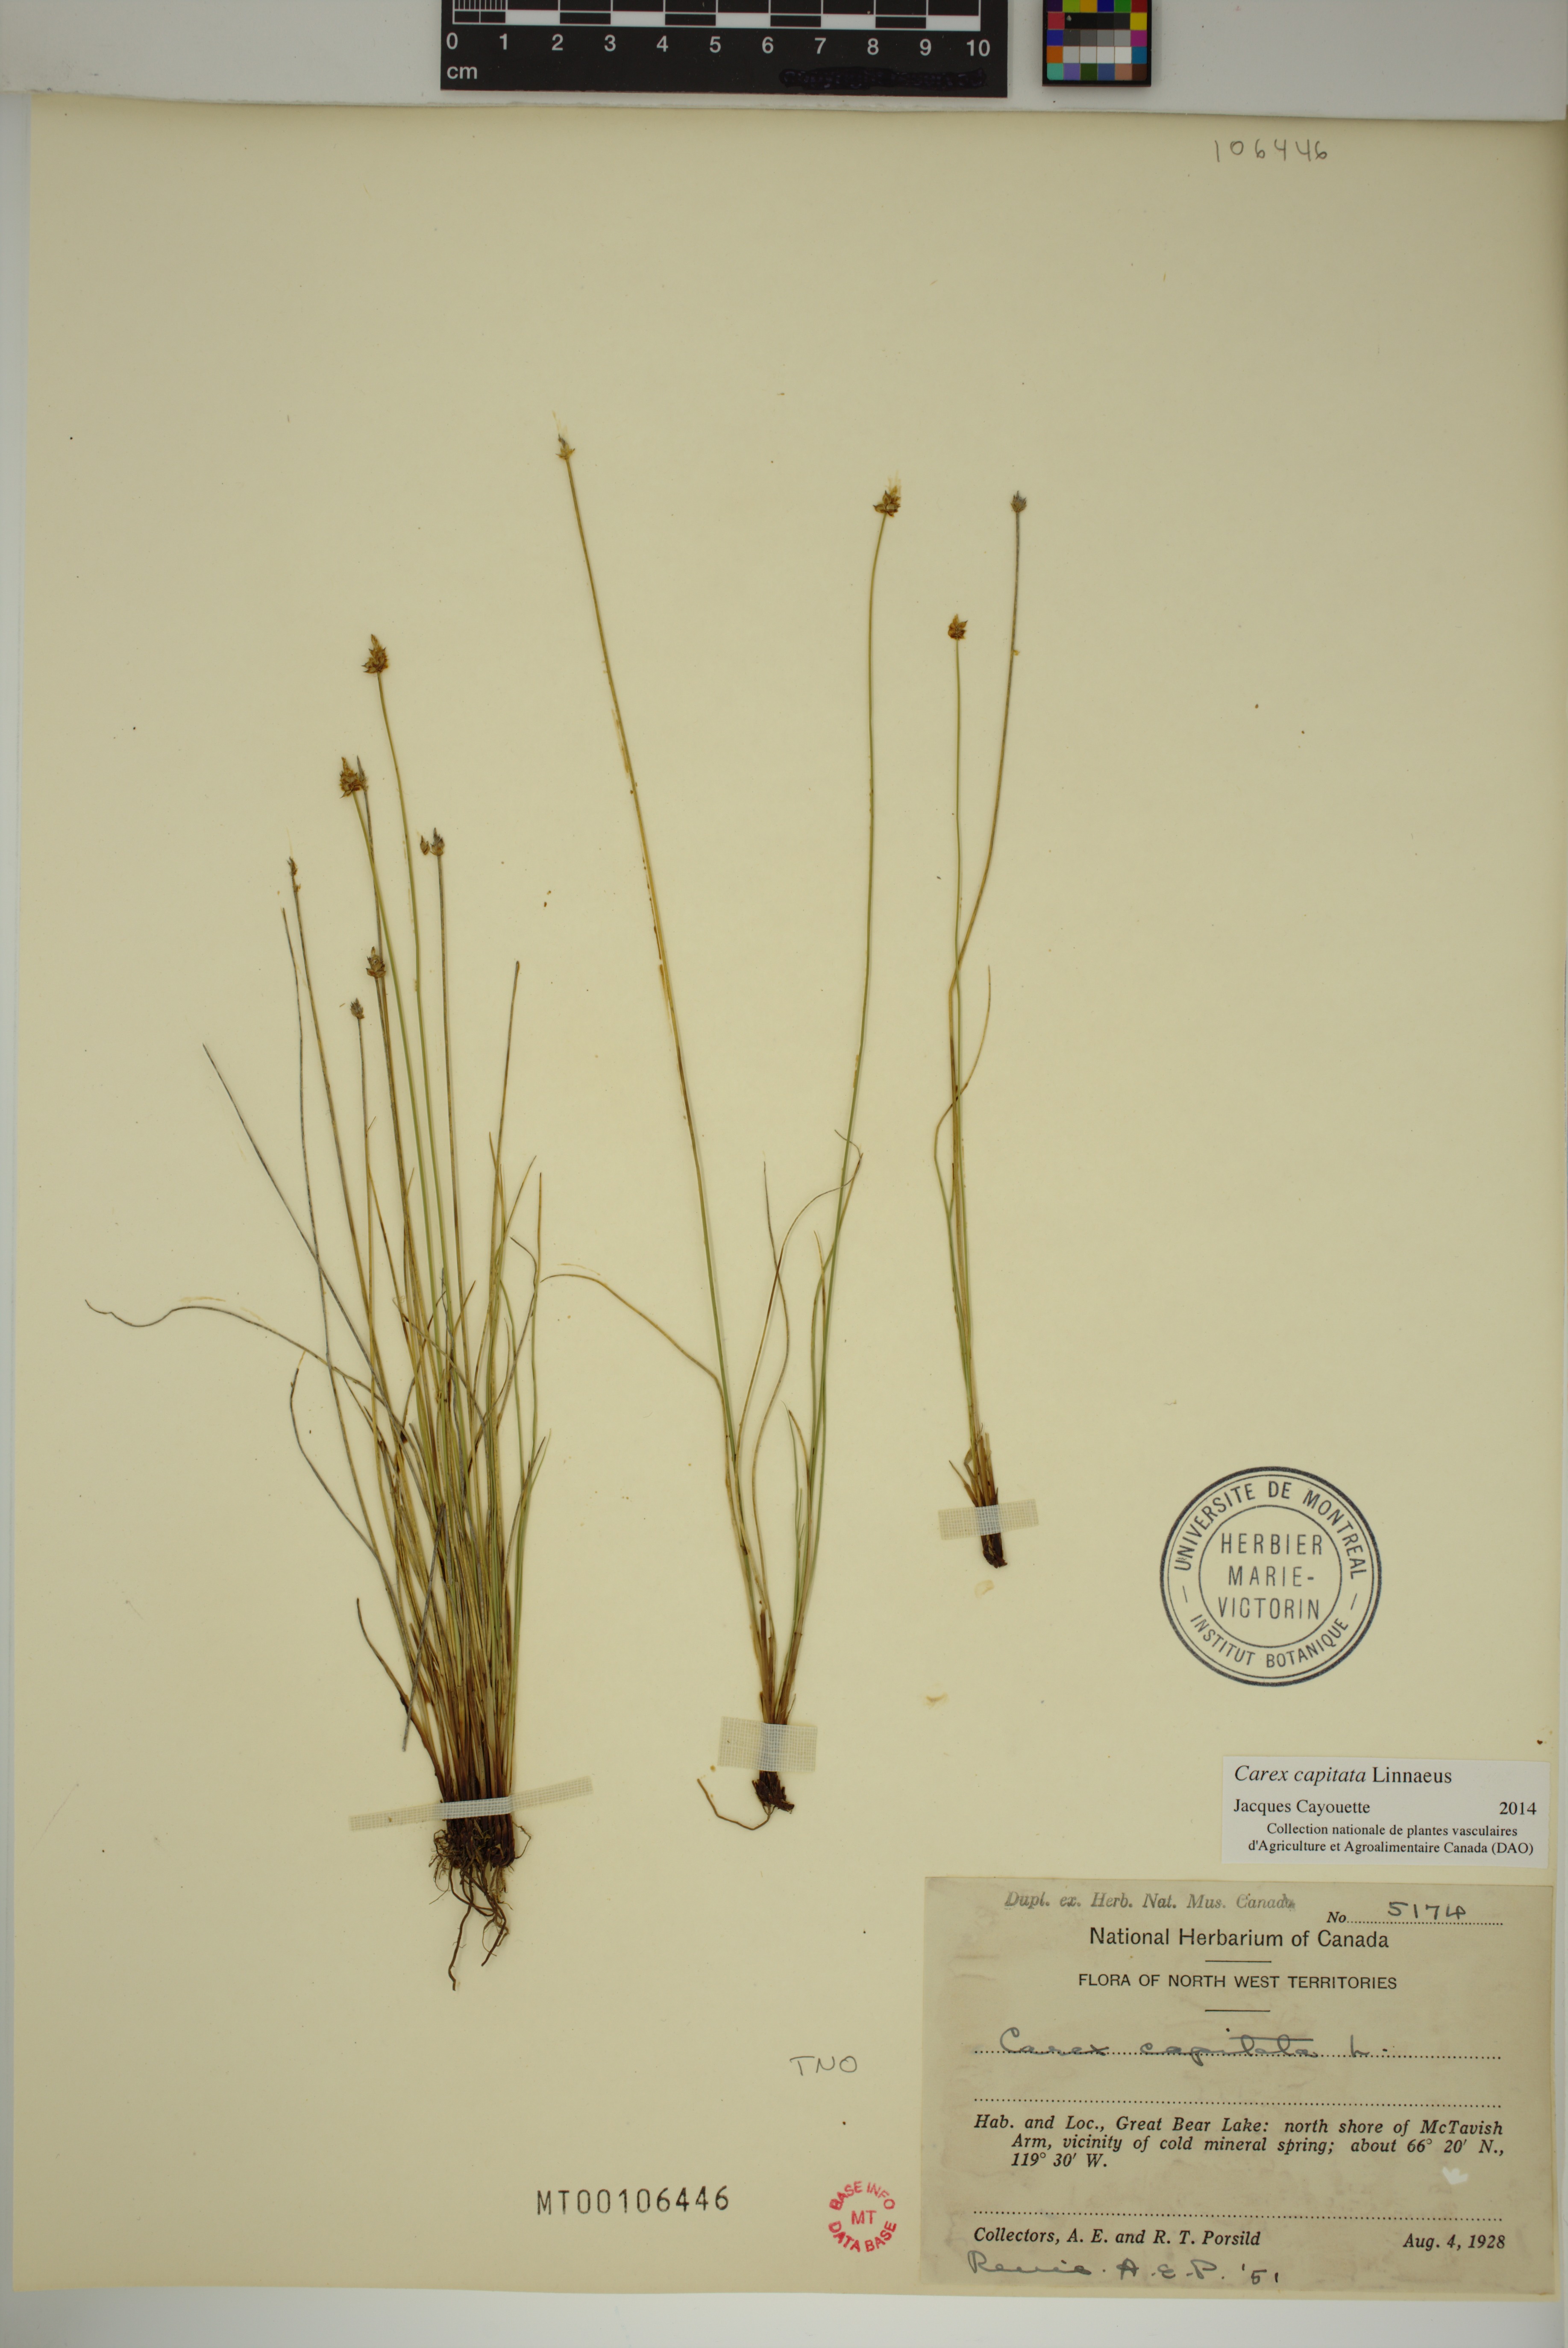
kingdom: Plantae
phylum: Tracheophyta
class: Liliopsida
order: Poales
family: Cyperaceae
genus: Carex
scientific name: Carex capitata
